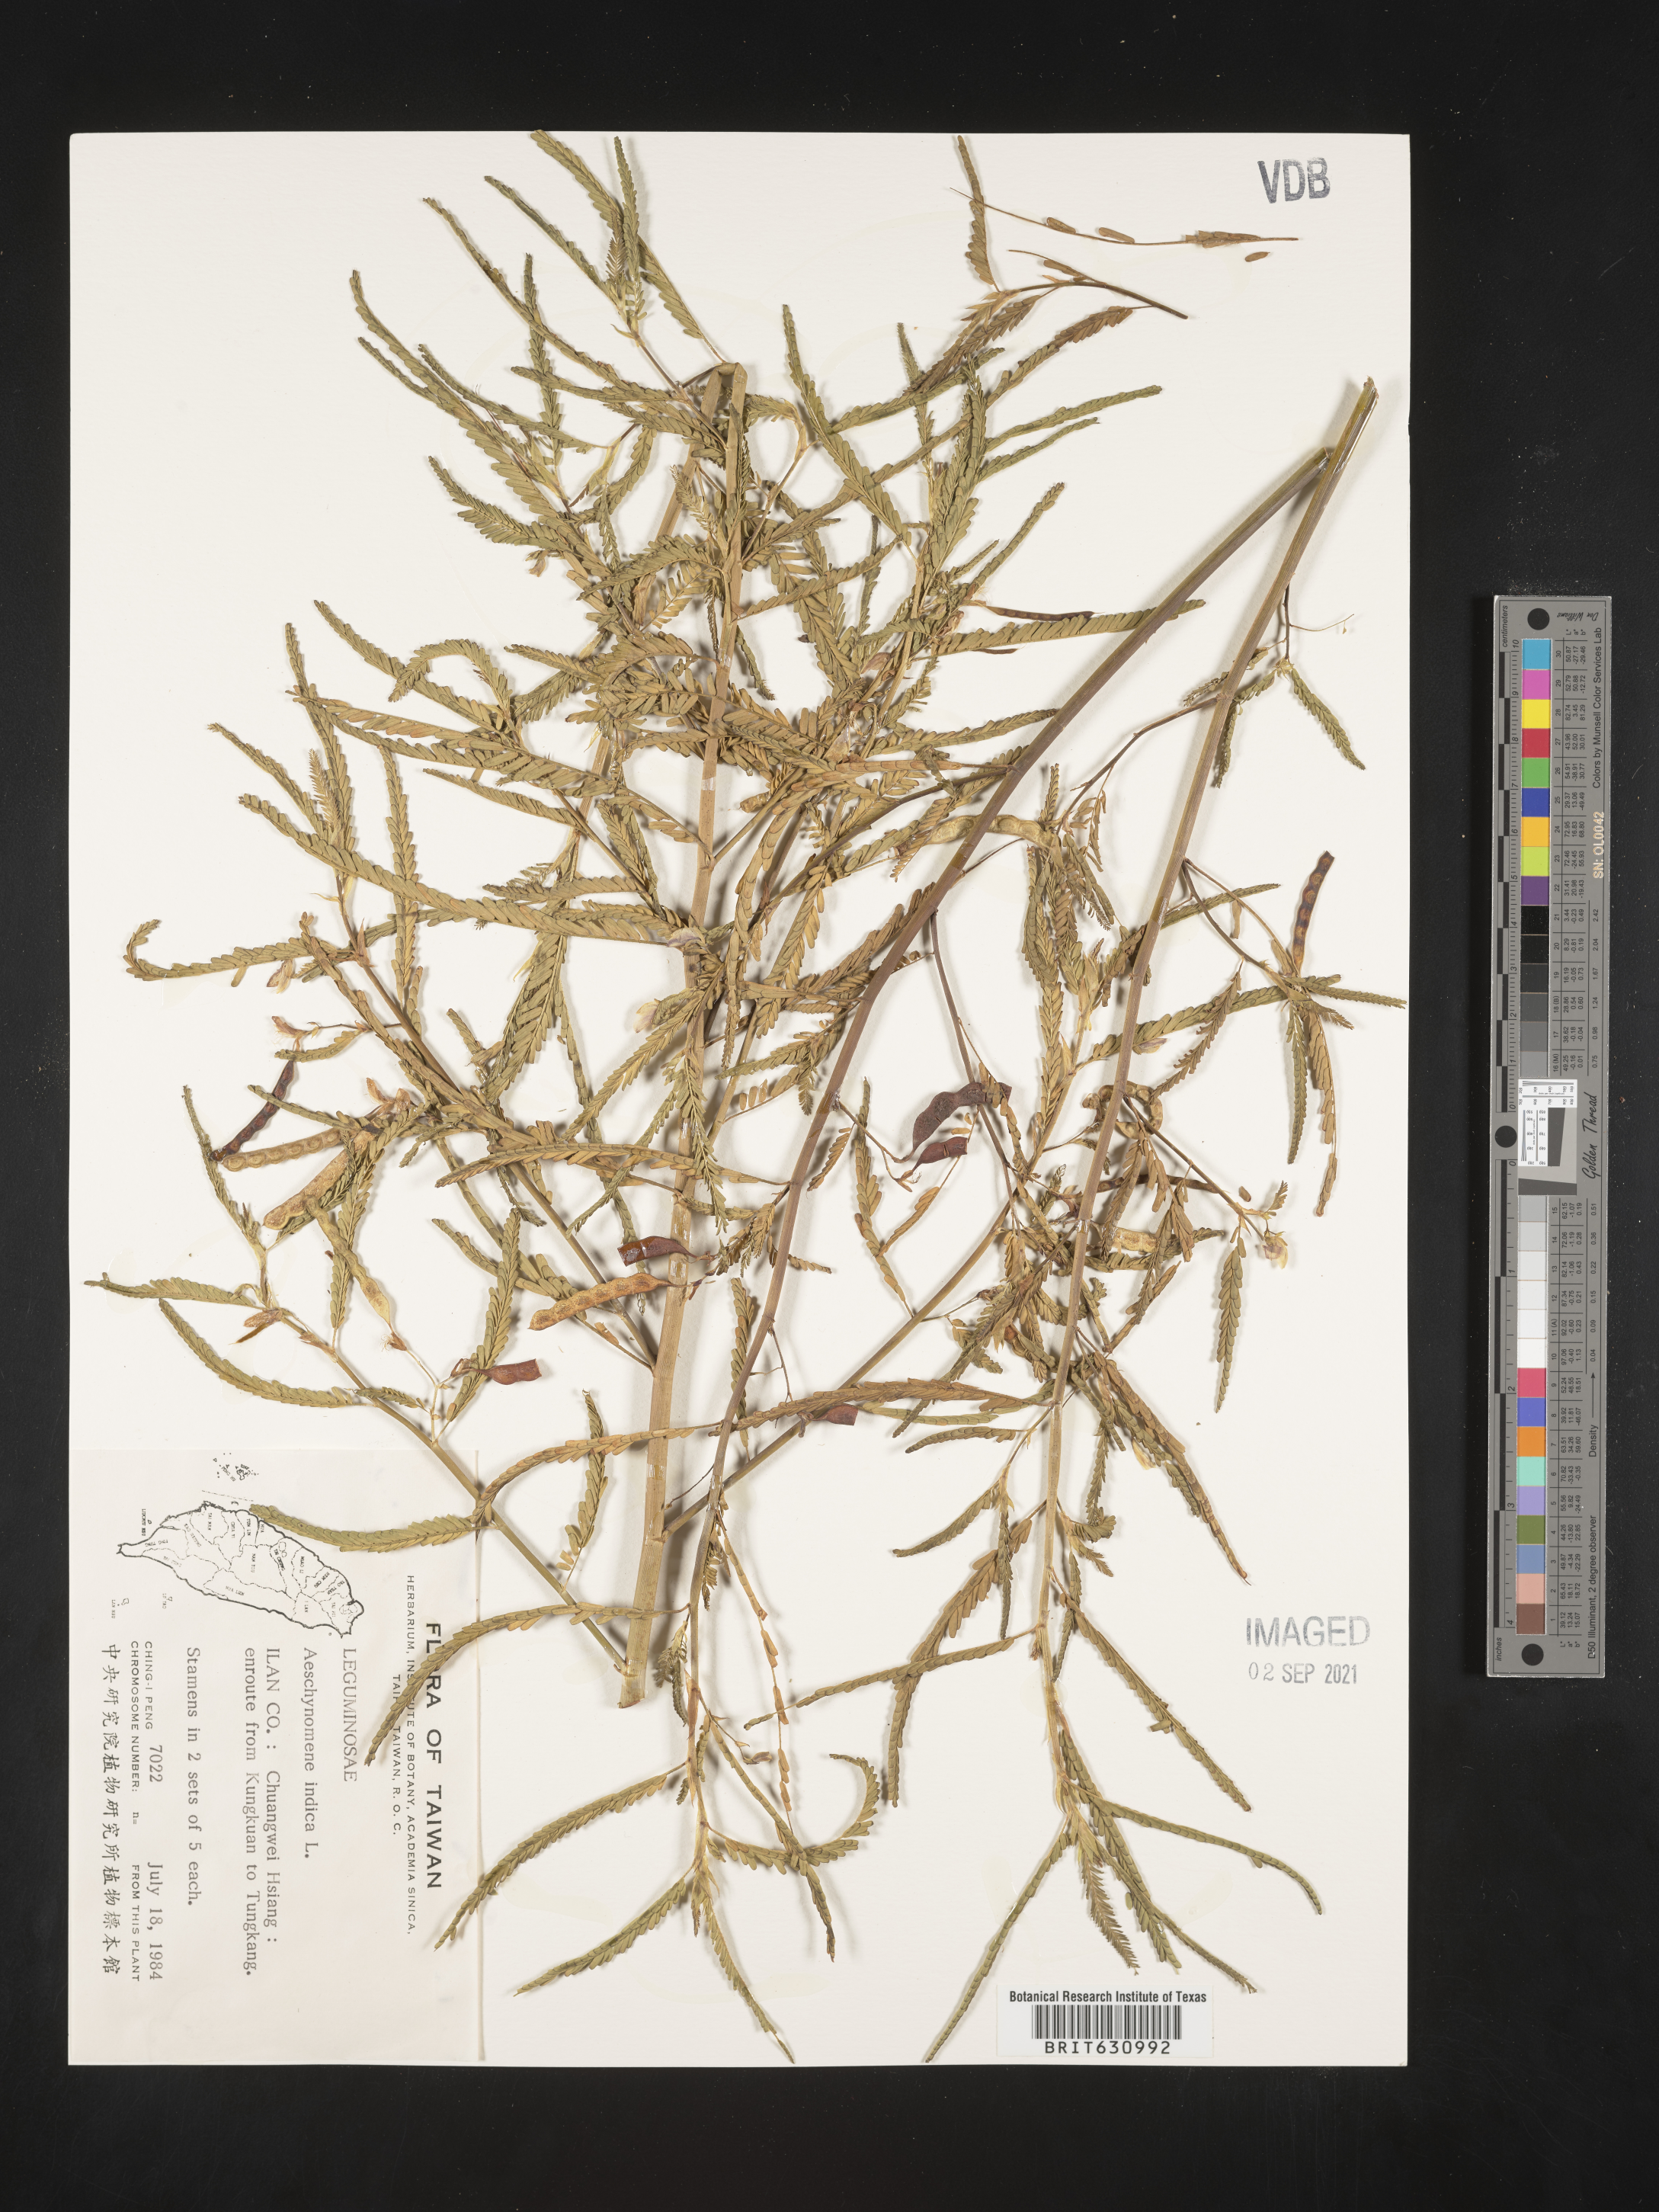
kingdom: Plantae
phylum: Tracheophyta
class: Magnoliopsida
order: Fabales
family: Fabaceae
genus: Aeschynomene
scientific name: Aeschynomene
